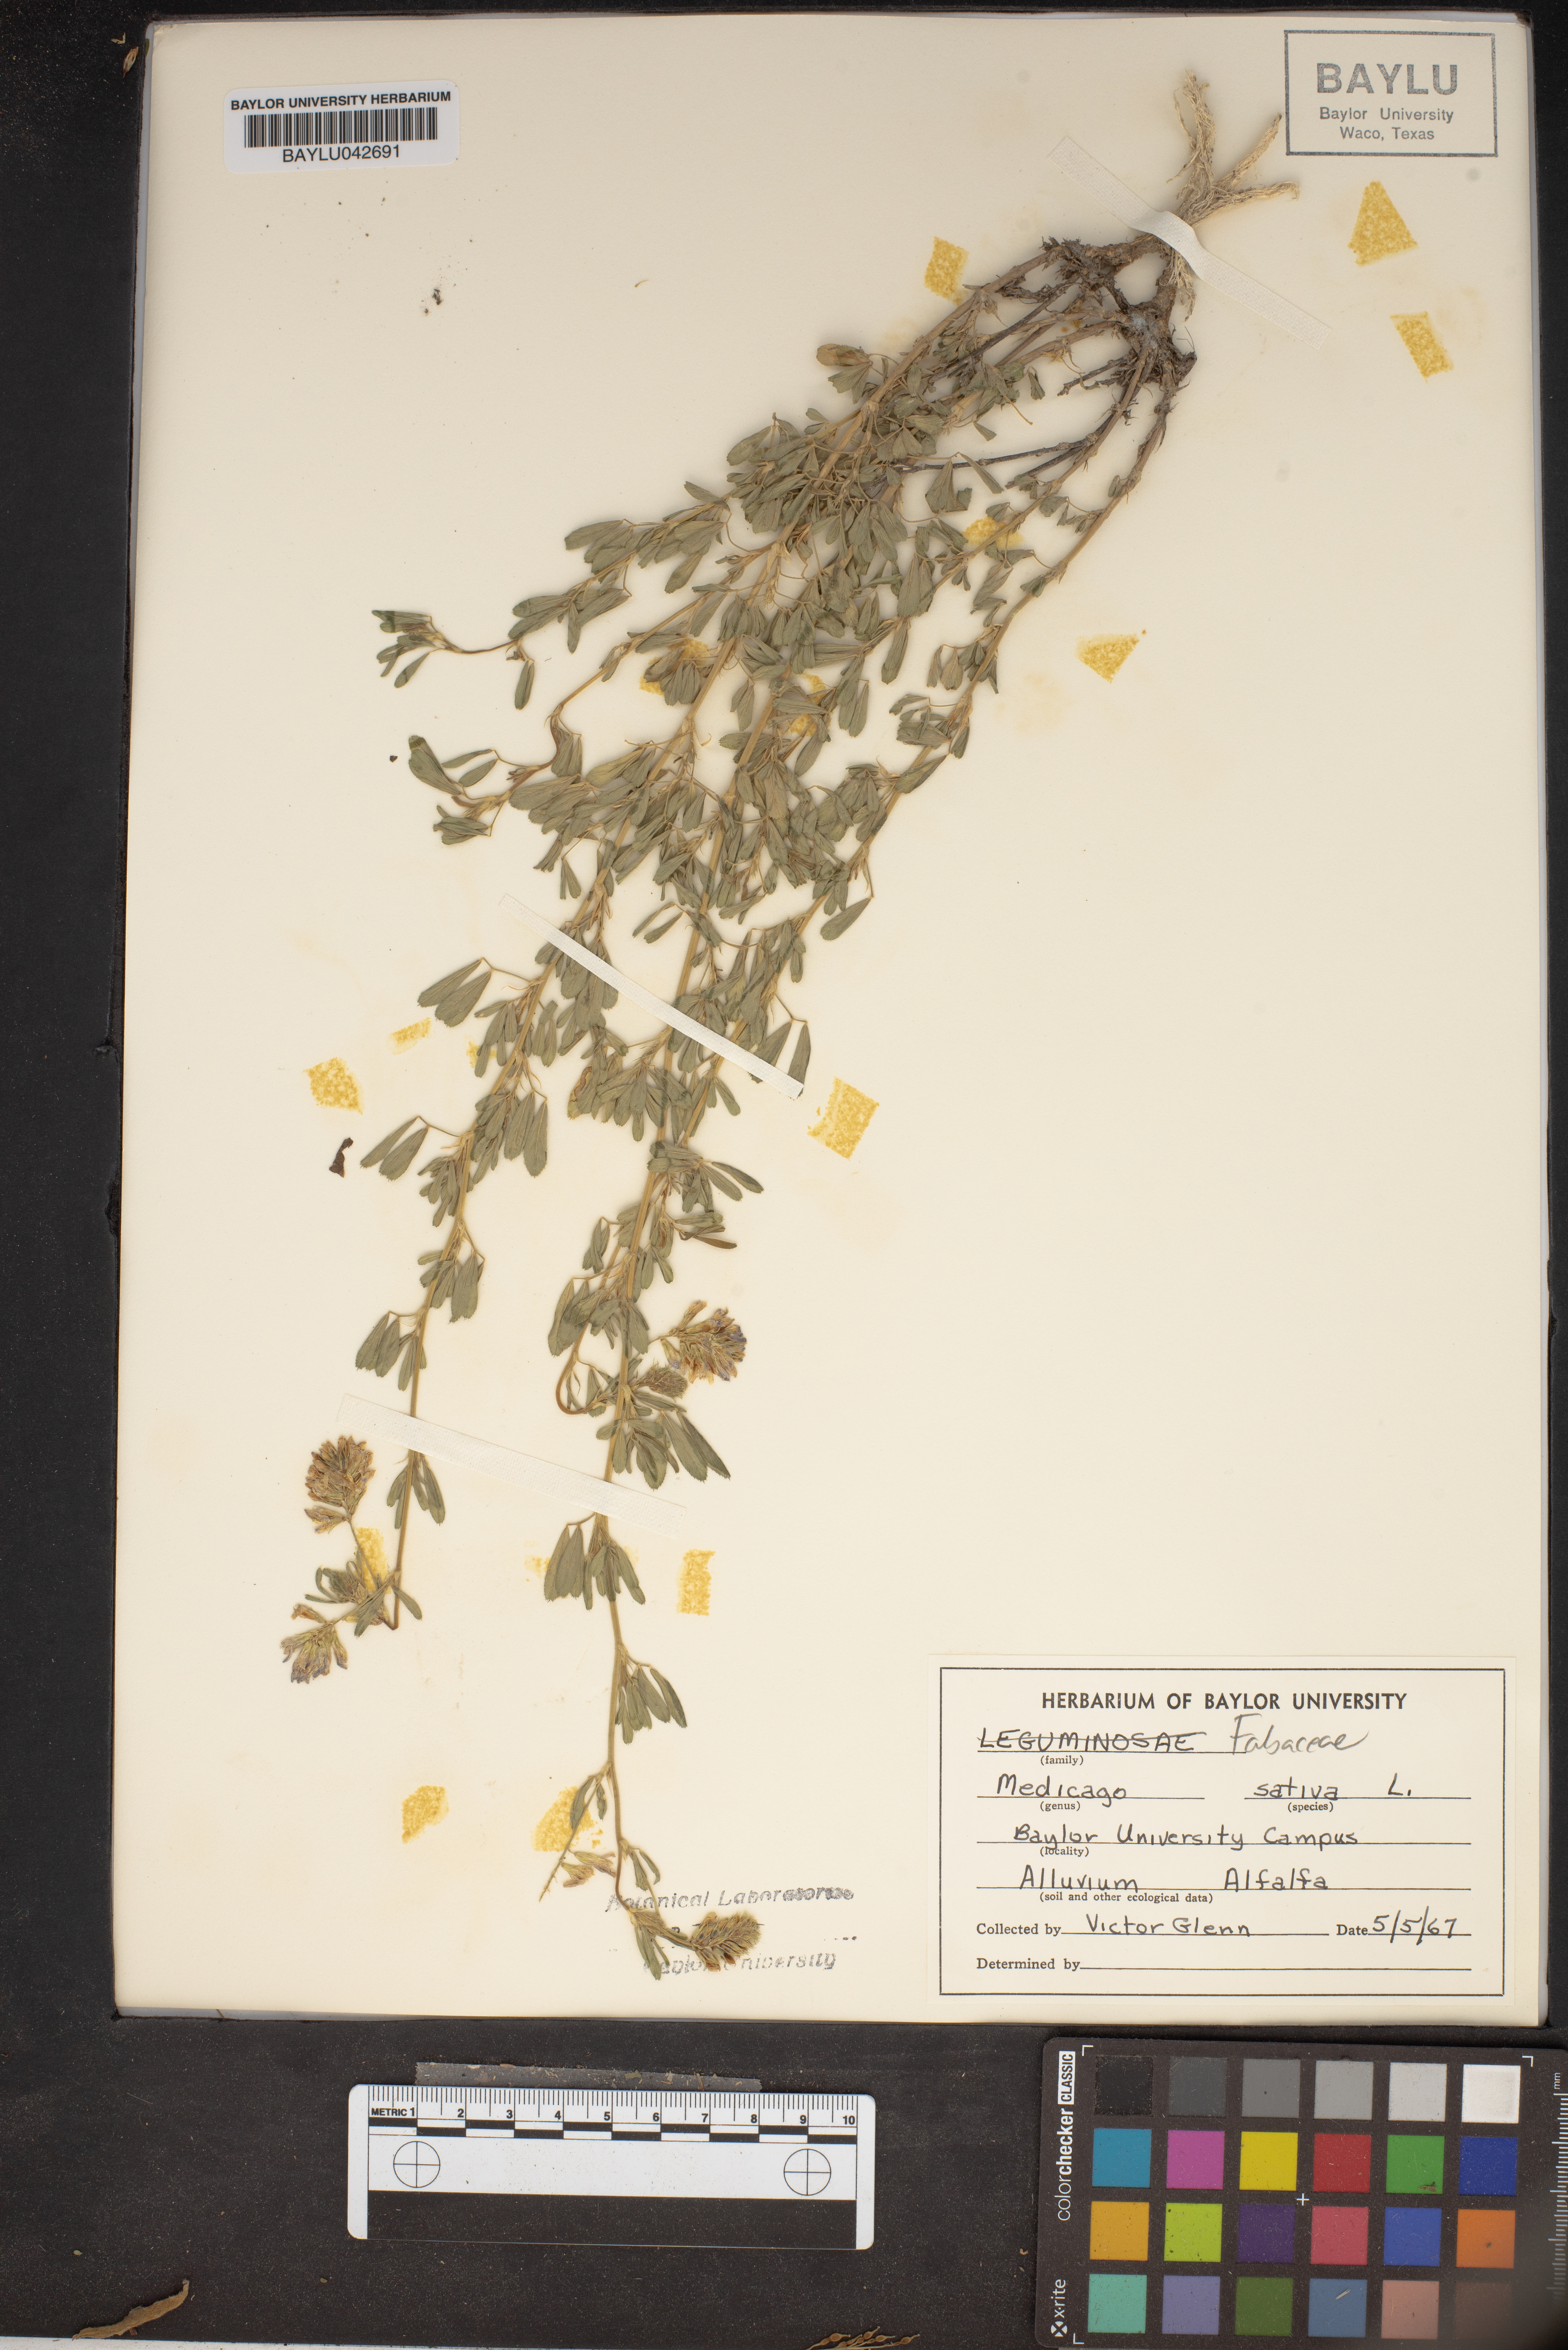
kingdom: Plantae
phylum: Tracheophyta
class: Magnoliopsida
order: Fabales
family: Fabaceae
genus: Medicago
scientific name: Medicago sativa
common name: Alfalfa
